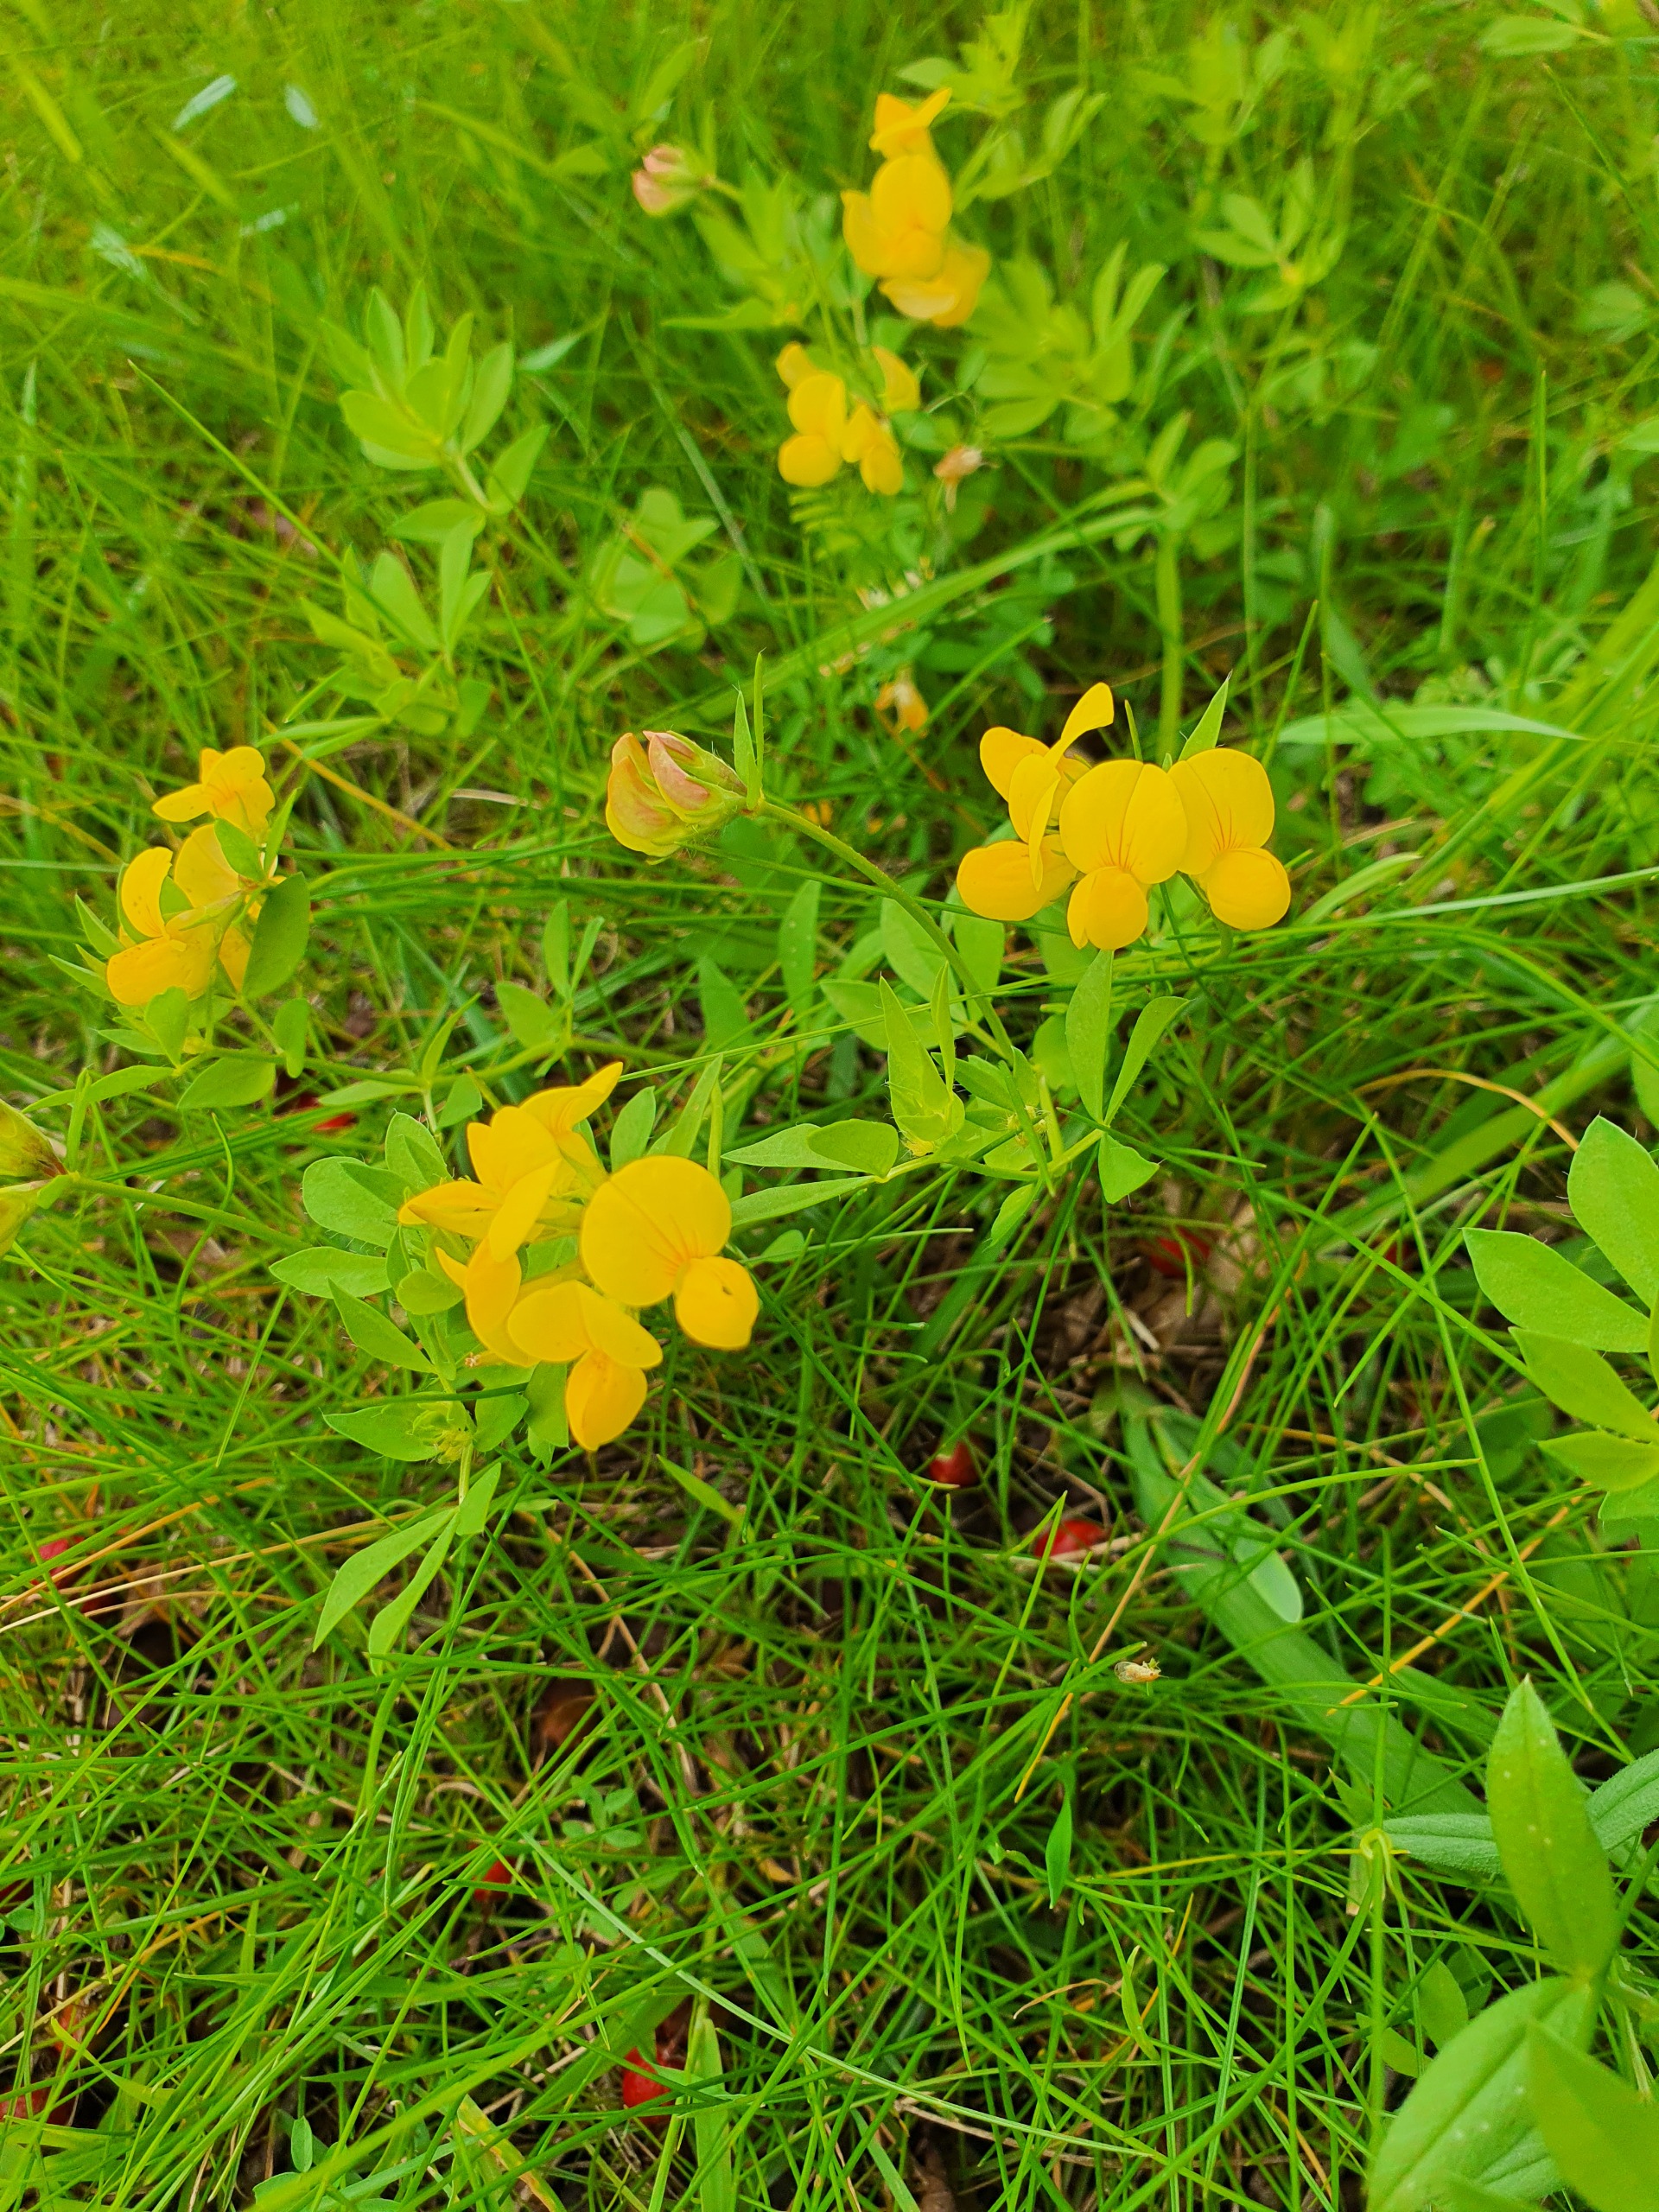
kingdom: Plantae
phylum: Tracheophyta
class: Magnoliopsida
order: Fabales
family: Fabaceae
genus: Lotus
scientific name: Lotus corniculatus
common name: Almindelig kællingetand
